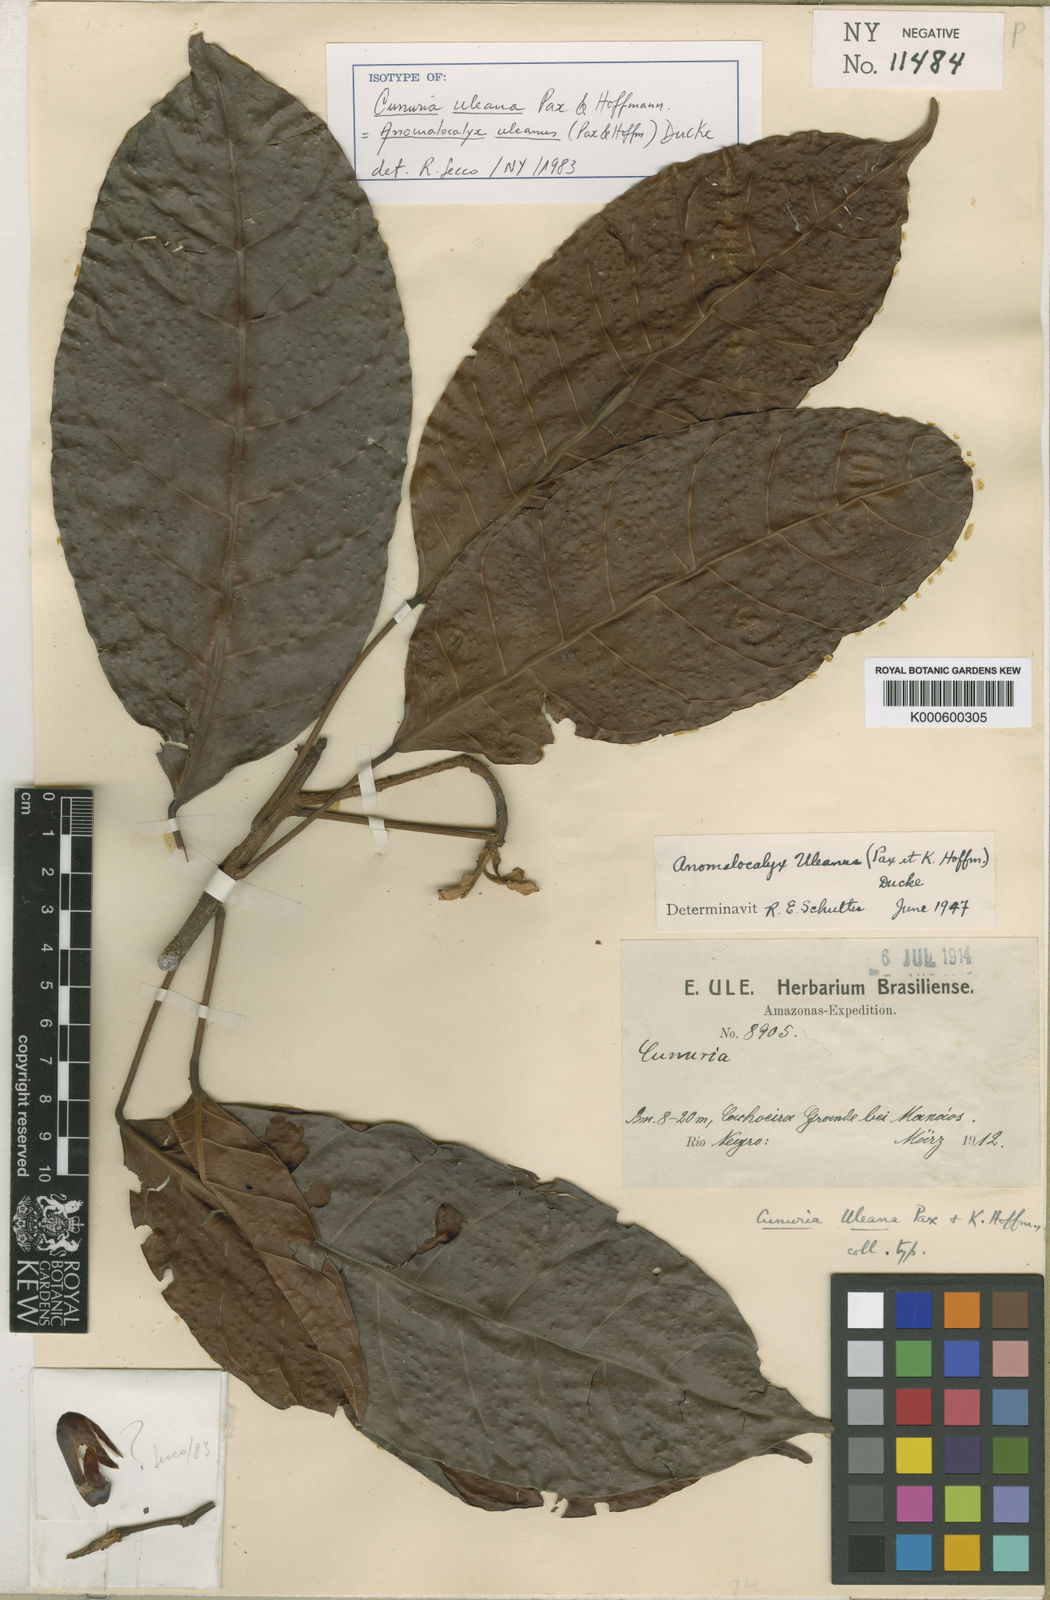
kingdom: Plantae
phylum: Tracheophyta
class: Magnoliopsida
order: Malpighiales
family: Euphorbiaceae
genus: Dodecastigma
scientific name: Dodecastigma uleanum
